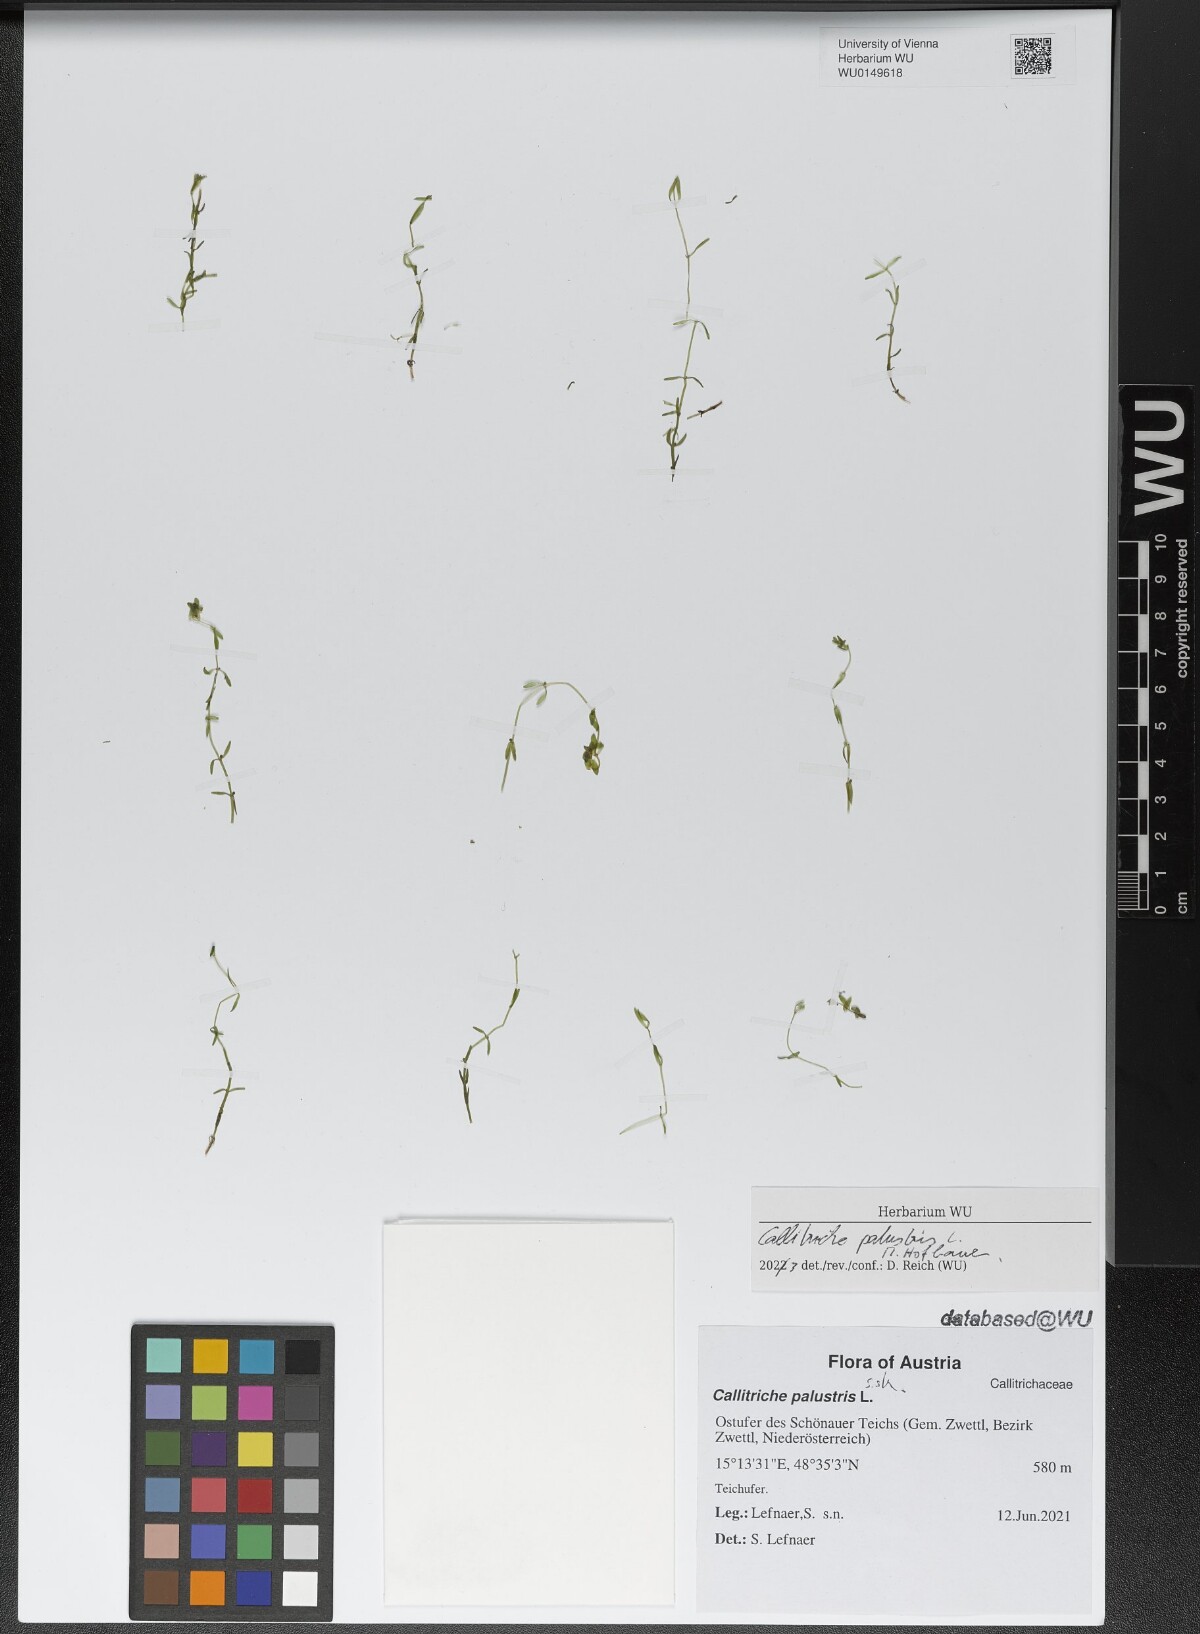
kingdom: Plantae
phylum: Tracheophyta
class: Magnoliopsida
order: Lamiales
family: Plantaginaceae
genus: Callitriche
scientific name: Callitriche palustris
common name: Spring water-starwort
